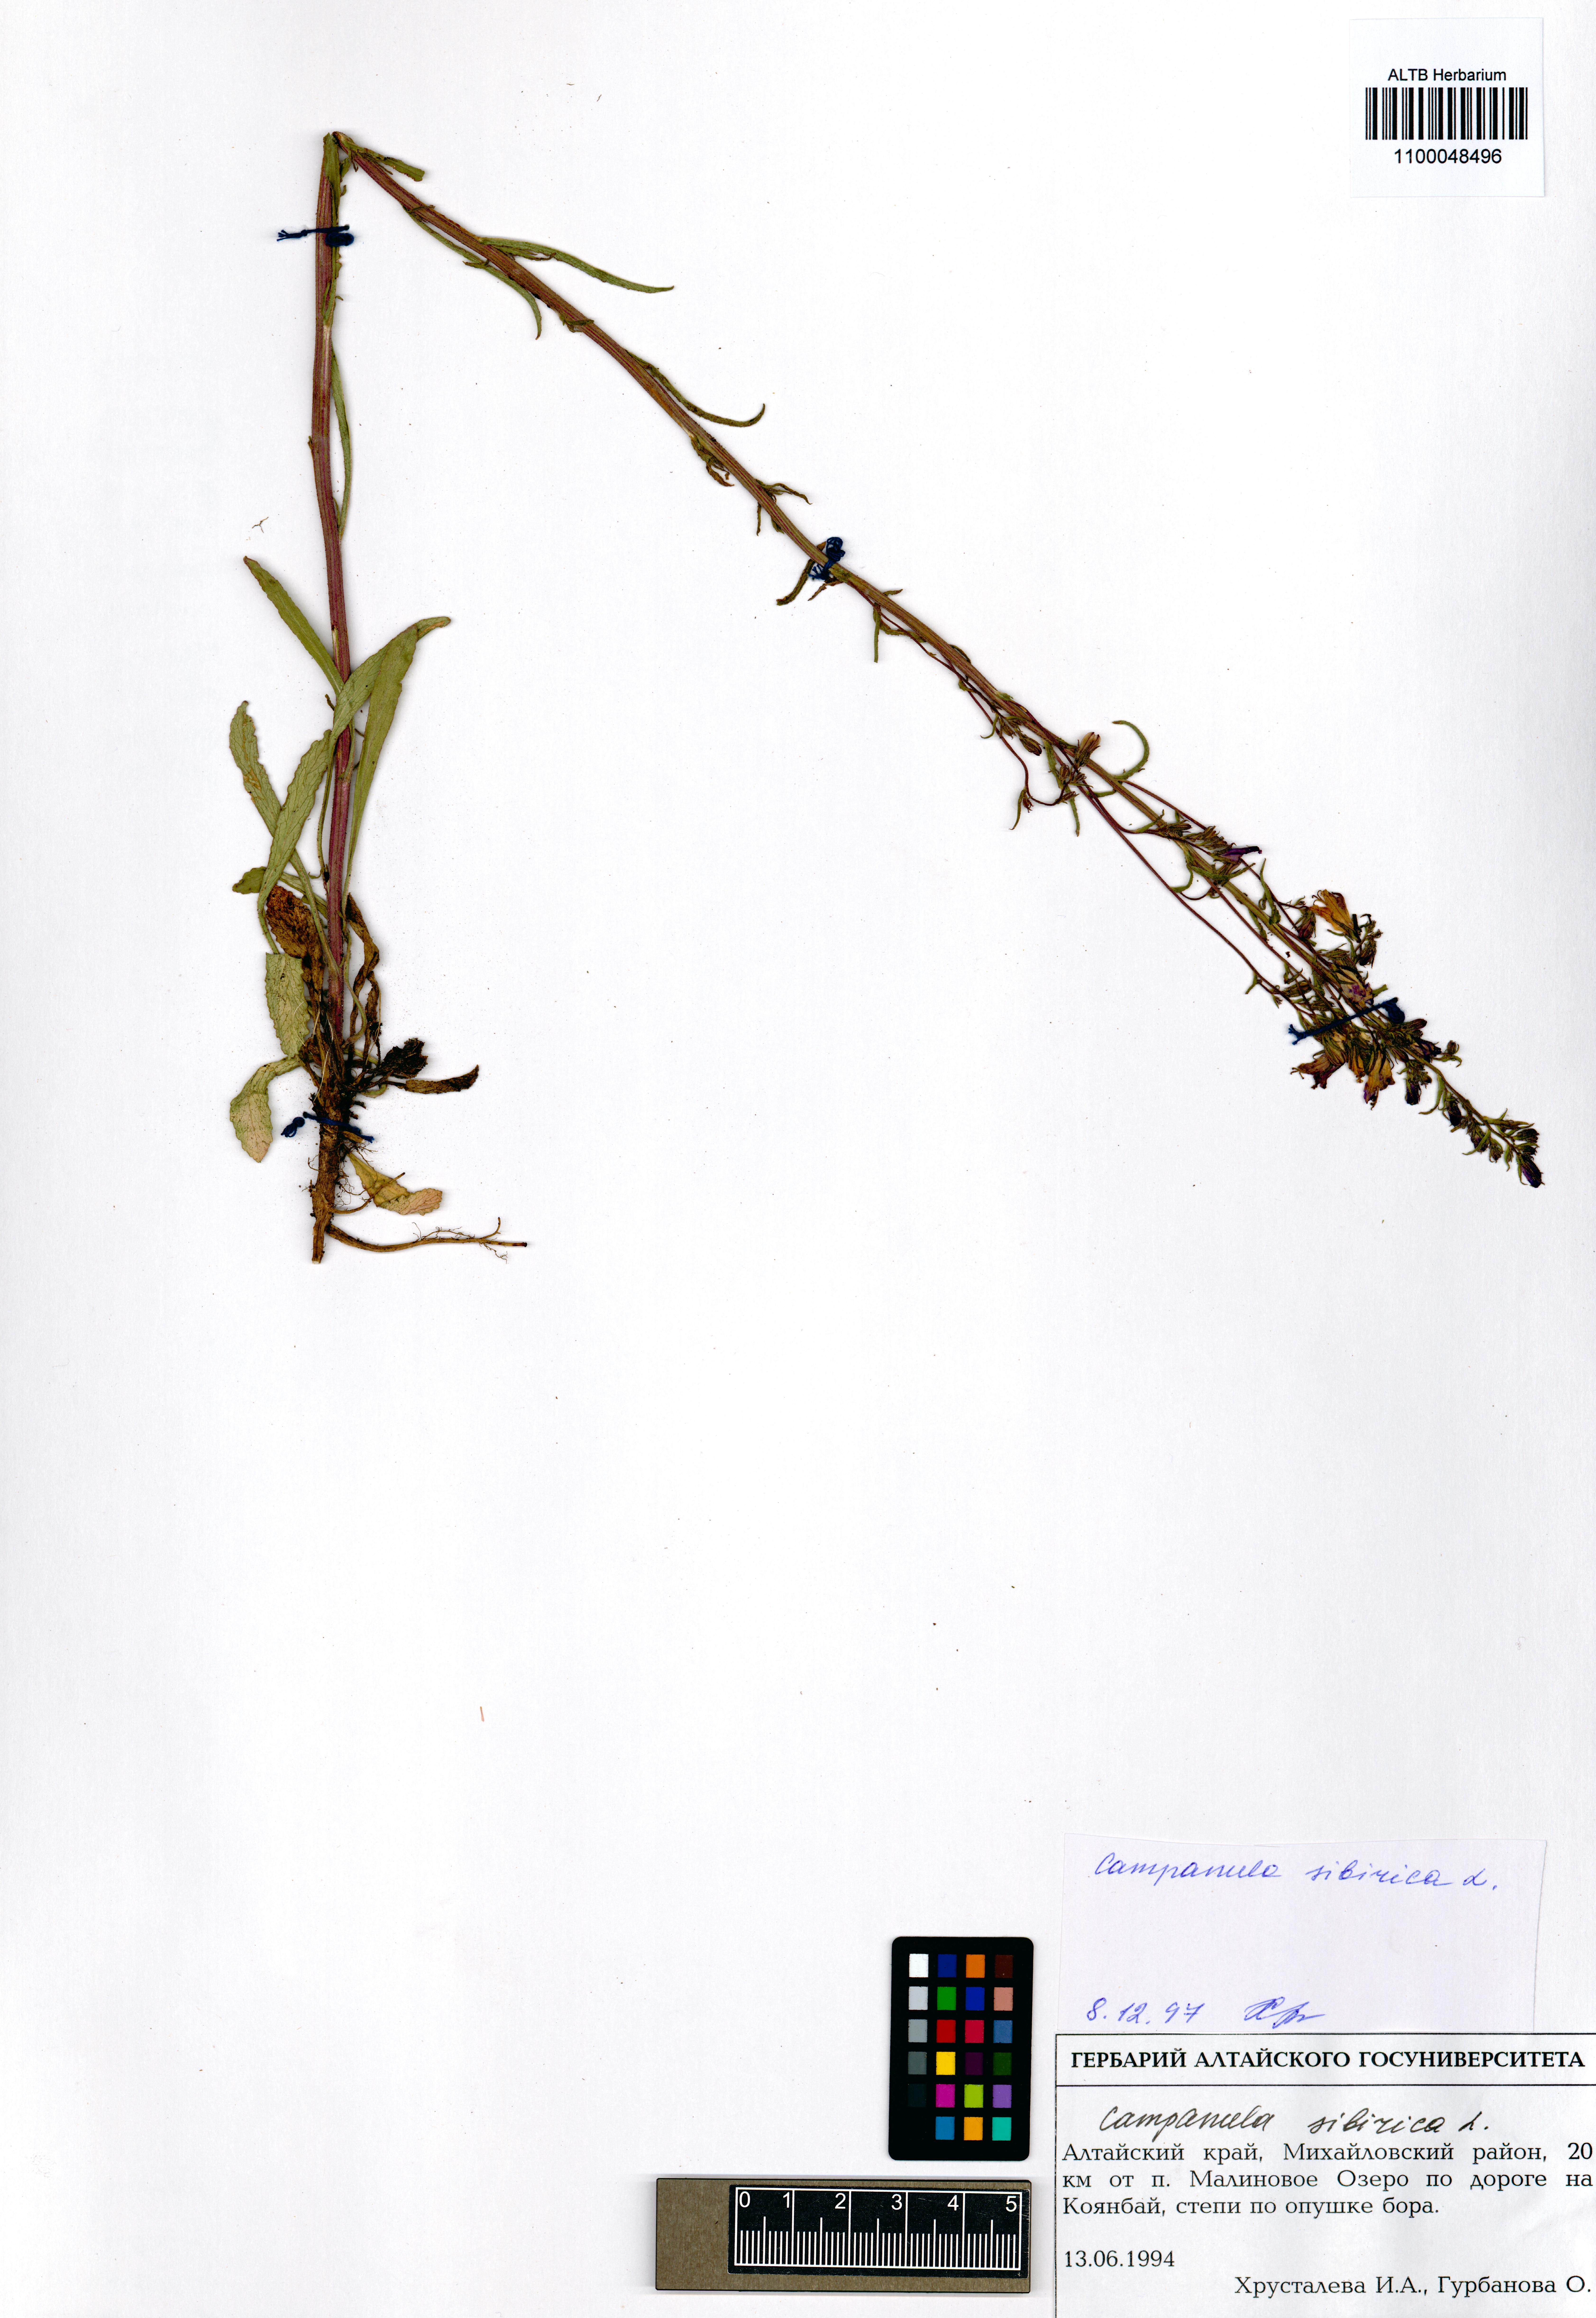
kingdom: Plantae
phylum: Tracheophyta
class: Magnoliopsida
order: Asterales
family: Campanulaceae
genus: Campanula
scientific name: Campanula sibirica
